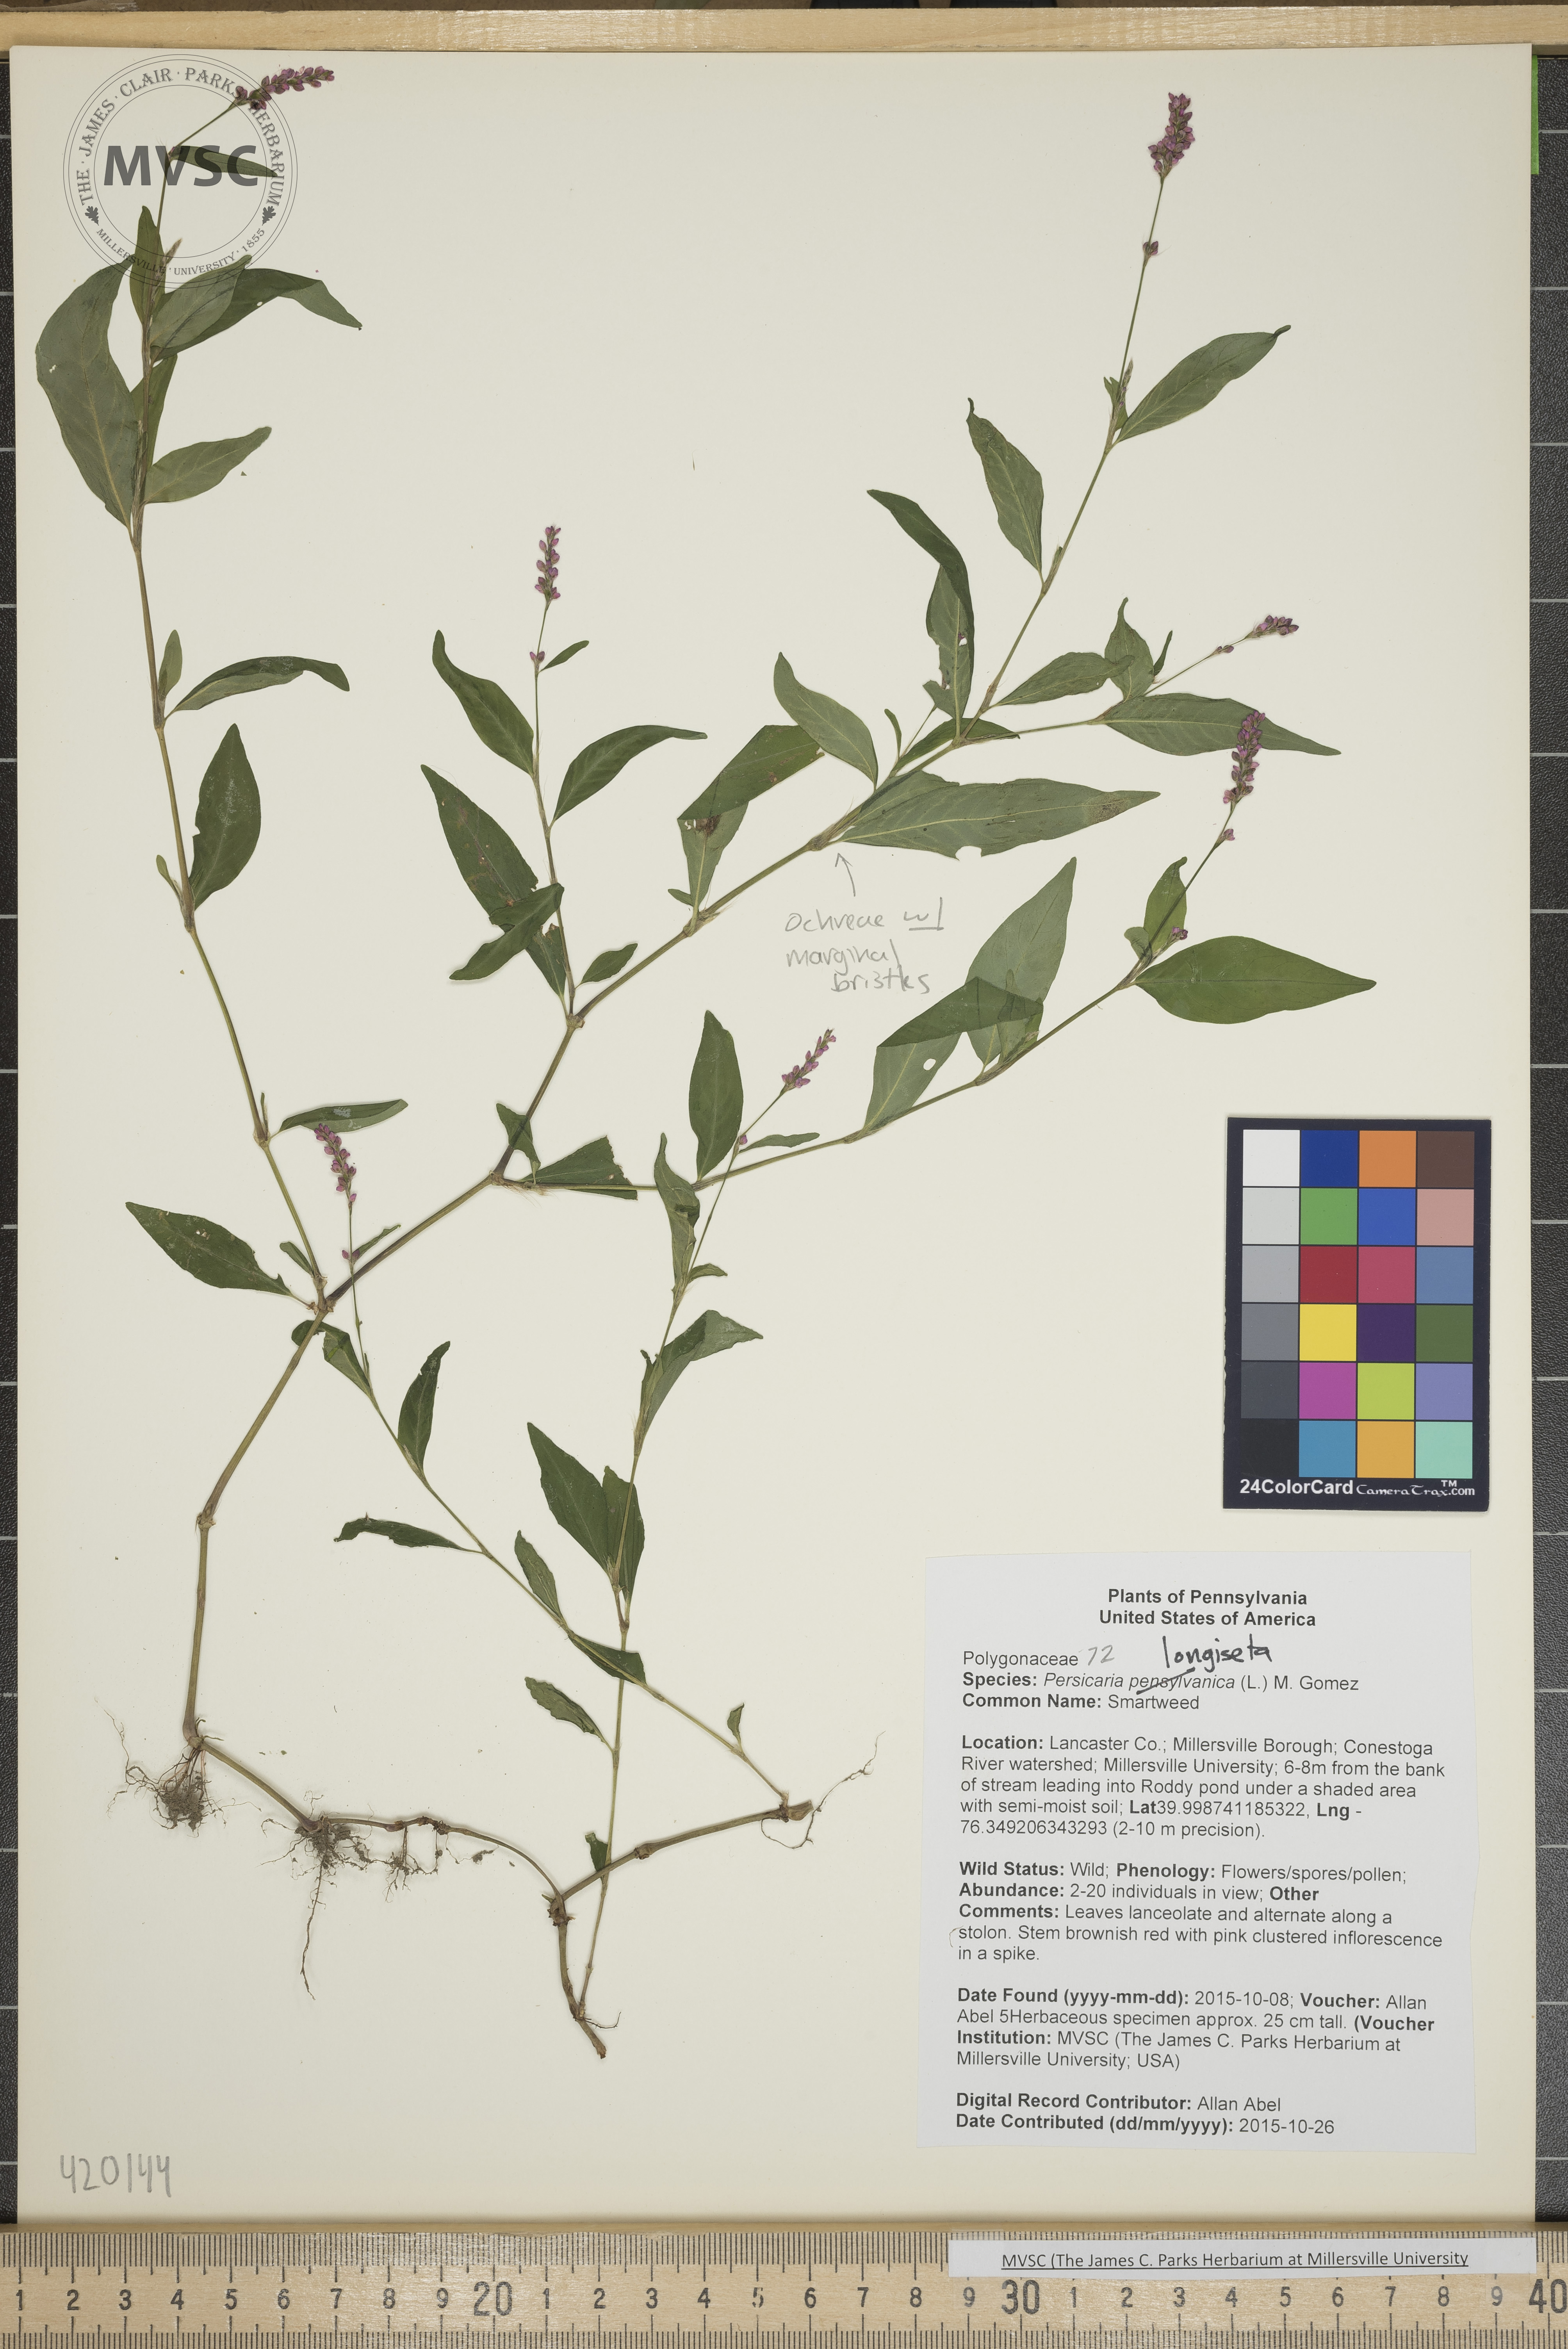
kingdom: Plantae
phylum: Tracheophyta
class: Magnoliopsida
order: Caryophyllales
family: Polygonaceae
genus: Persicaria
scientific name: Persicaria longiseta
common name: Smartweed
